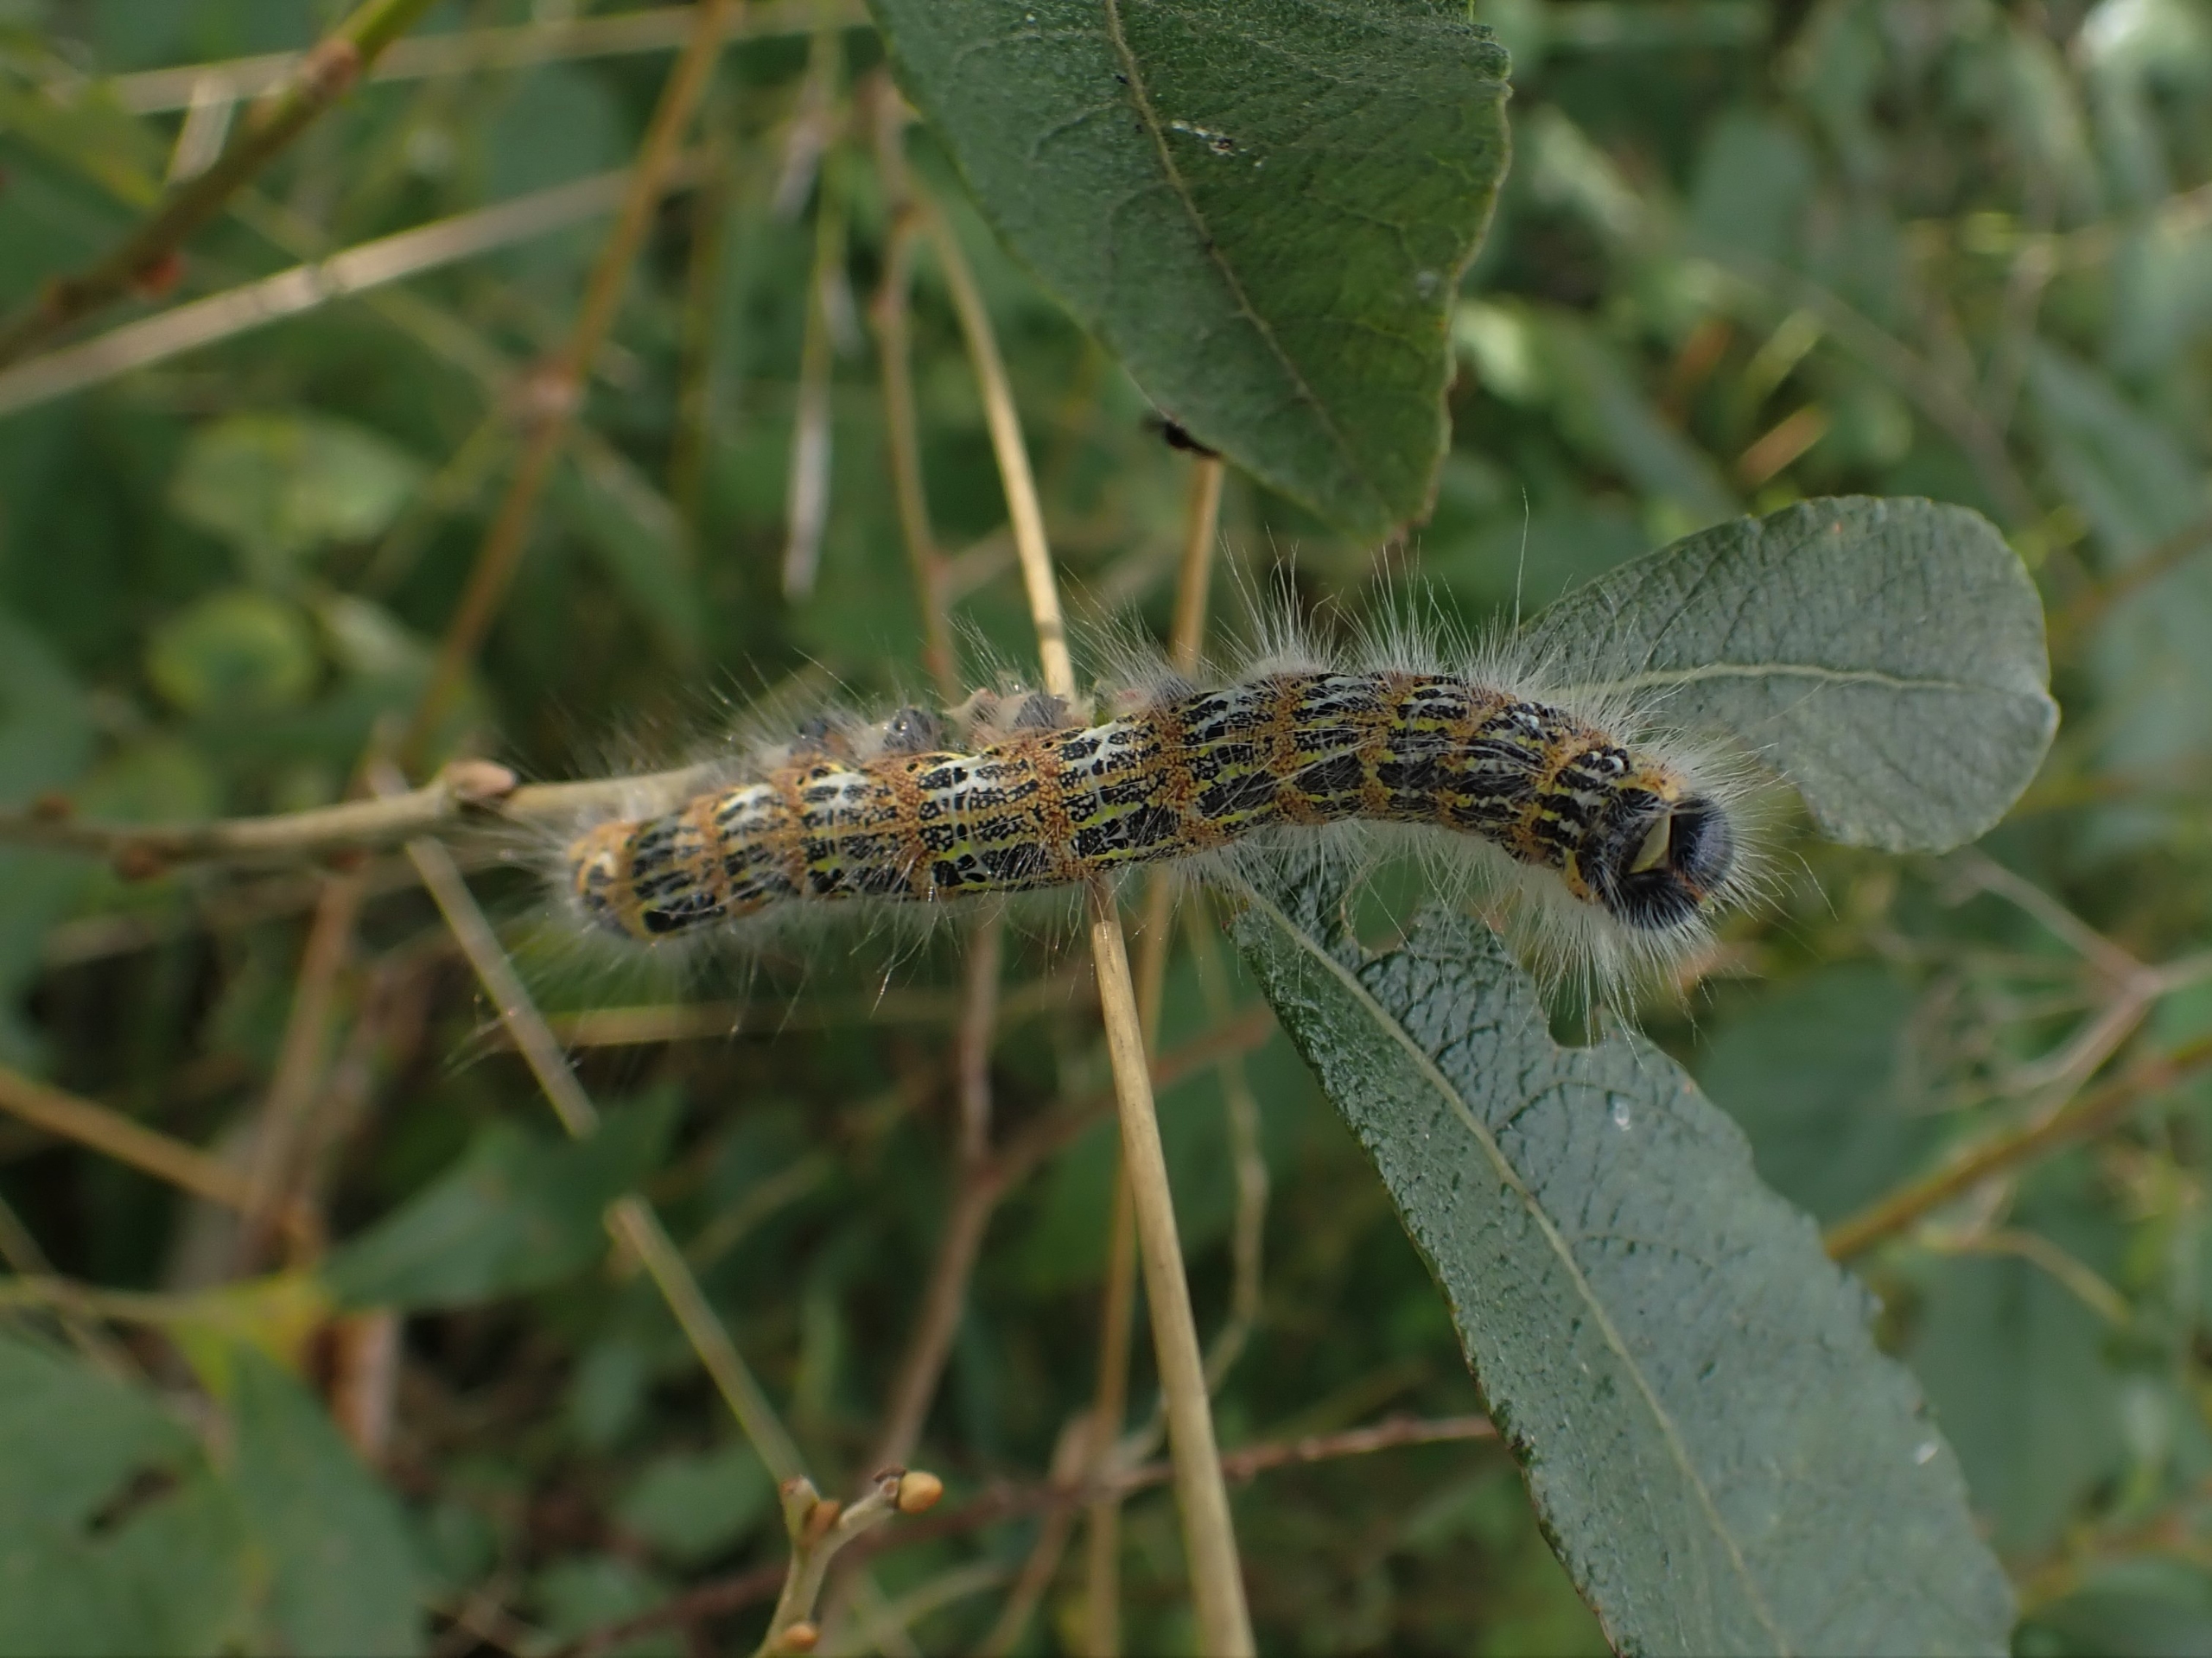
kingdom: Animalia
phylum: Arthropoda
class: Insecta
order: Lepidoptera
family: Notodontidae
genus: Phalera
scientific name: Phalera bucephala
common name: Måneplet
